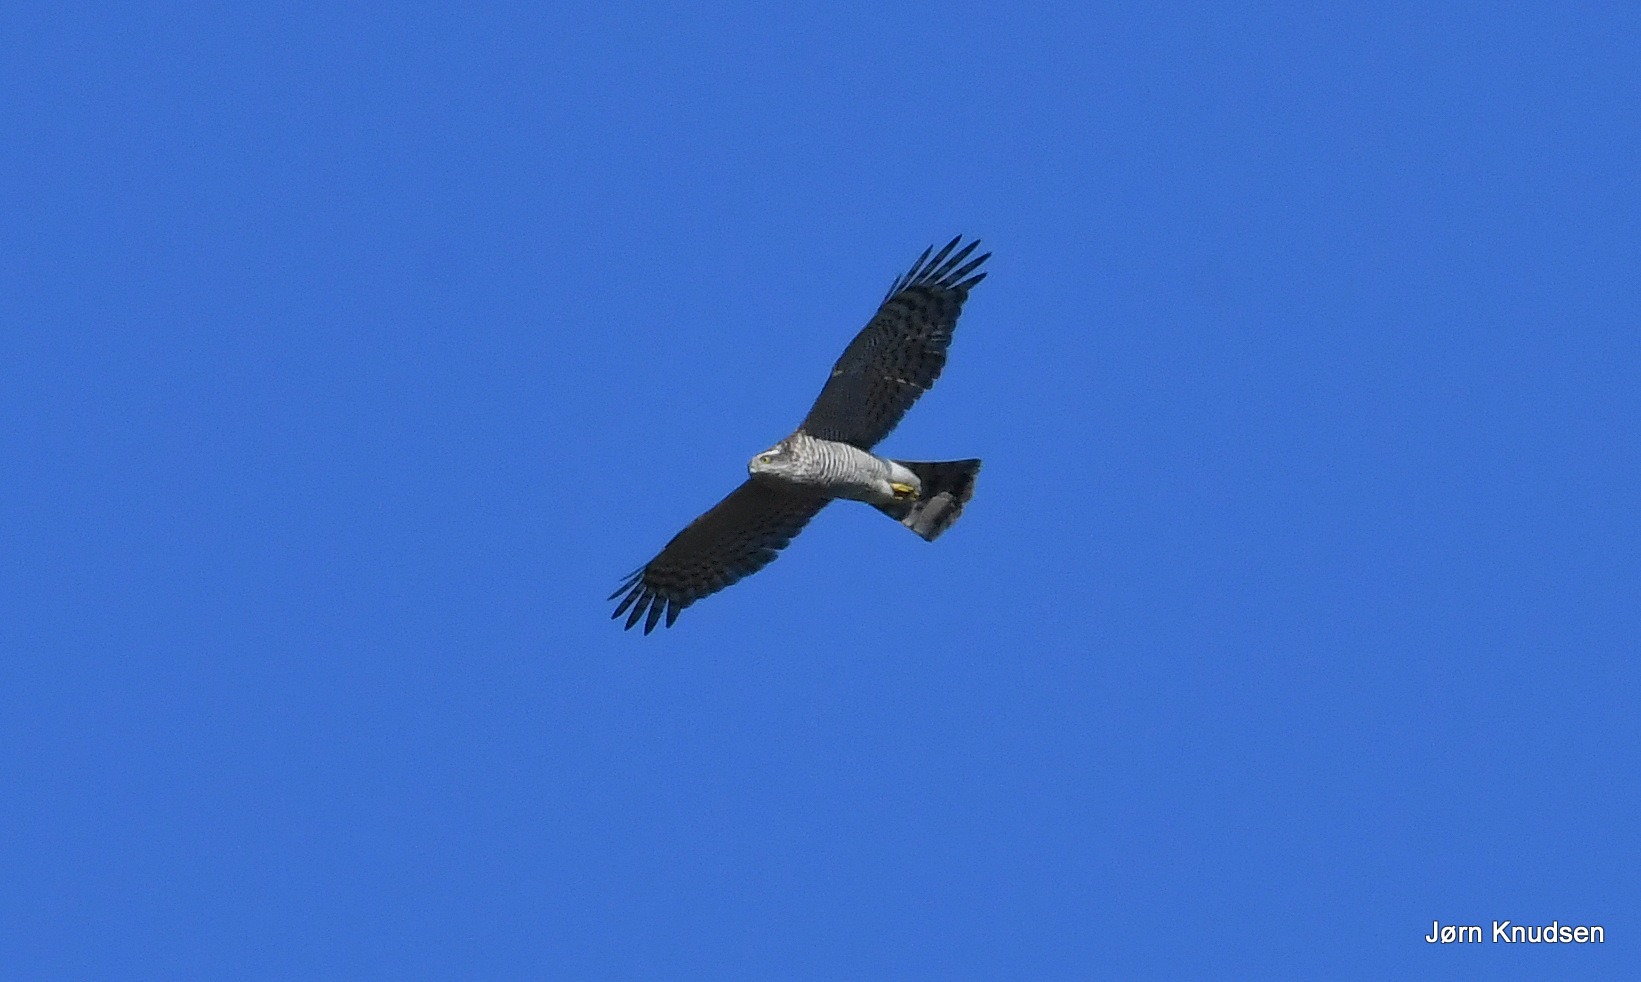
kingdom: Animalia
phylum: Chordata
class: Aves
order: Accipitriformes
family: Accipitridae
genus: Accipiter
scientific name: Accipiter nisus
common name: Spurvehøg
